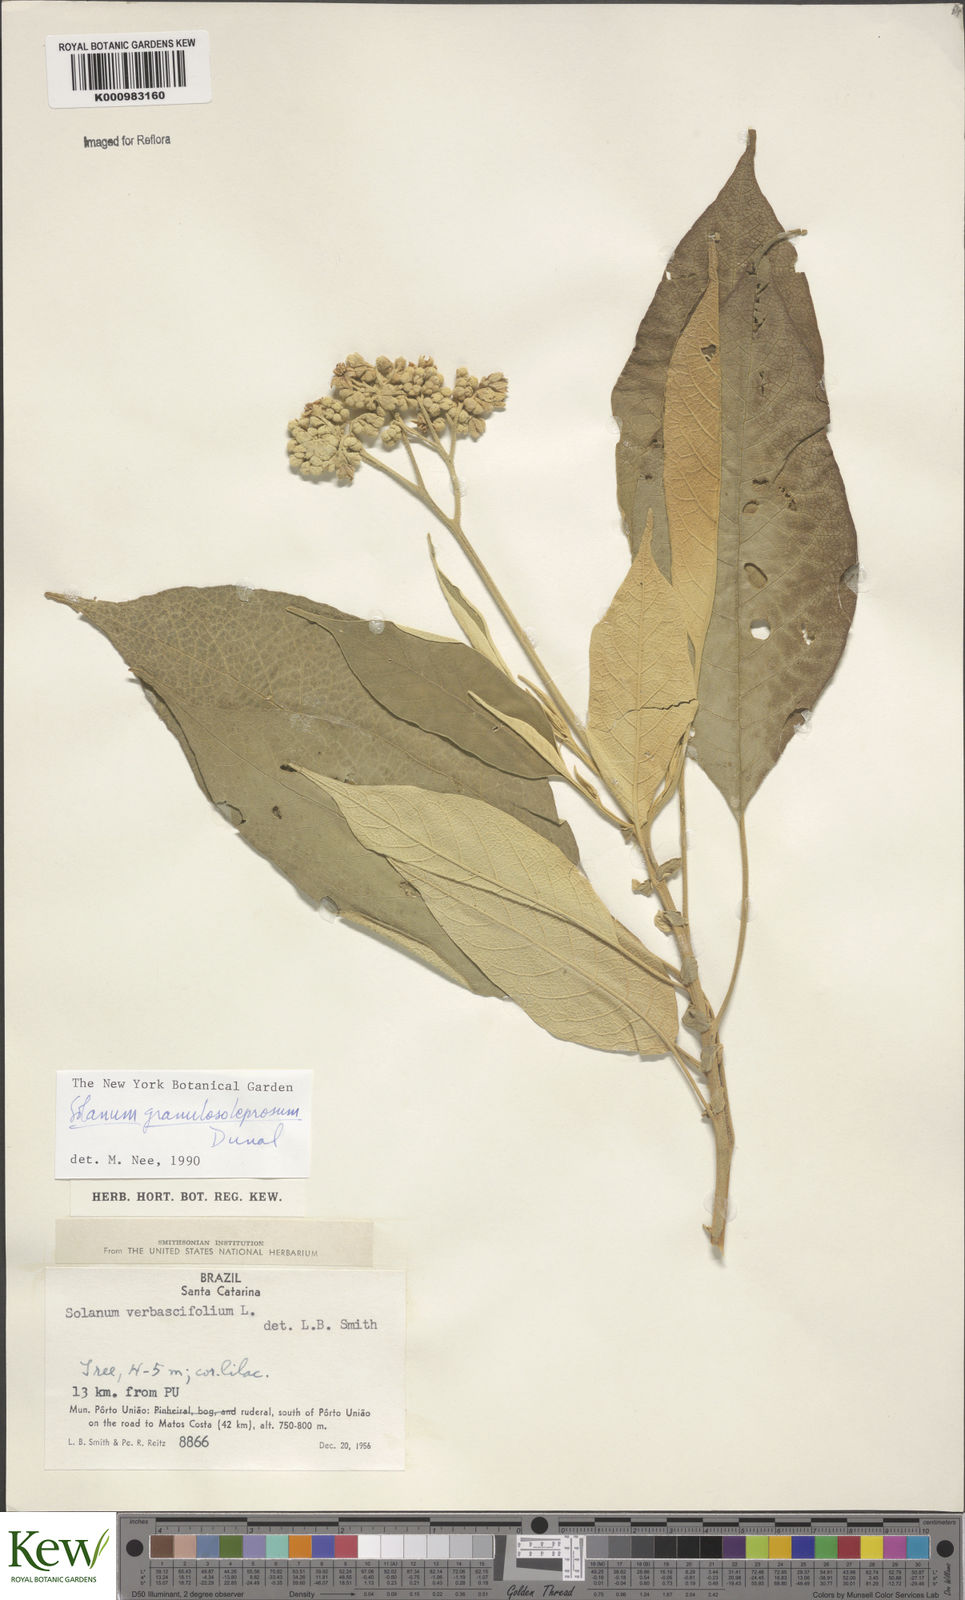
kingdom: Plantae
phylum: Tracheophyta
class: Magnoliopsida
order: Solanales
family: Solanaceae
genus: Solanum
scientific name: Solanum granulosoleprosum
